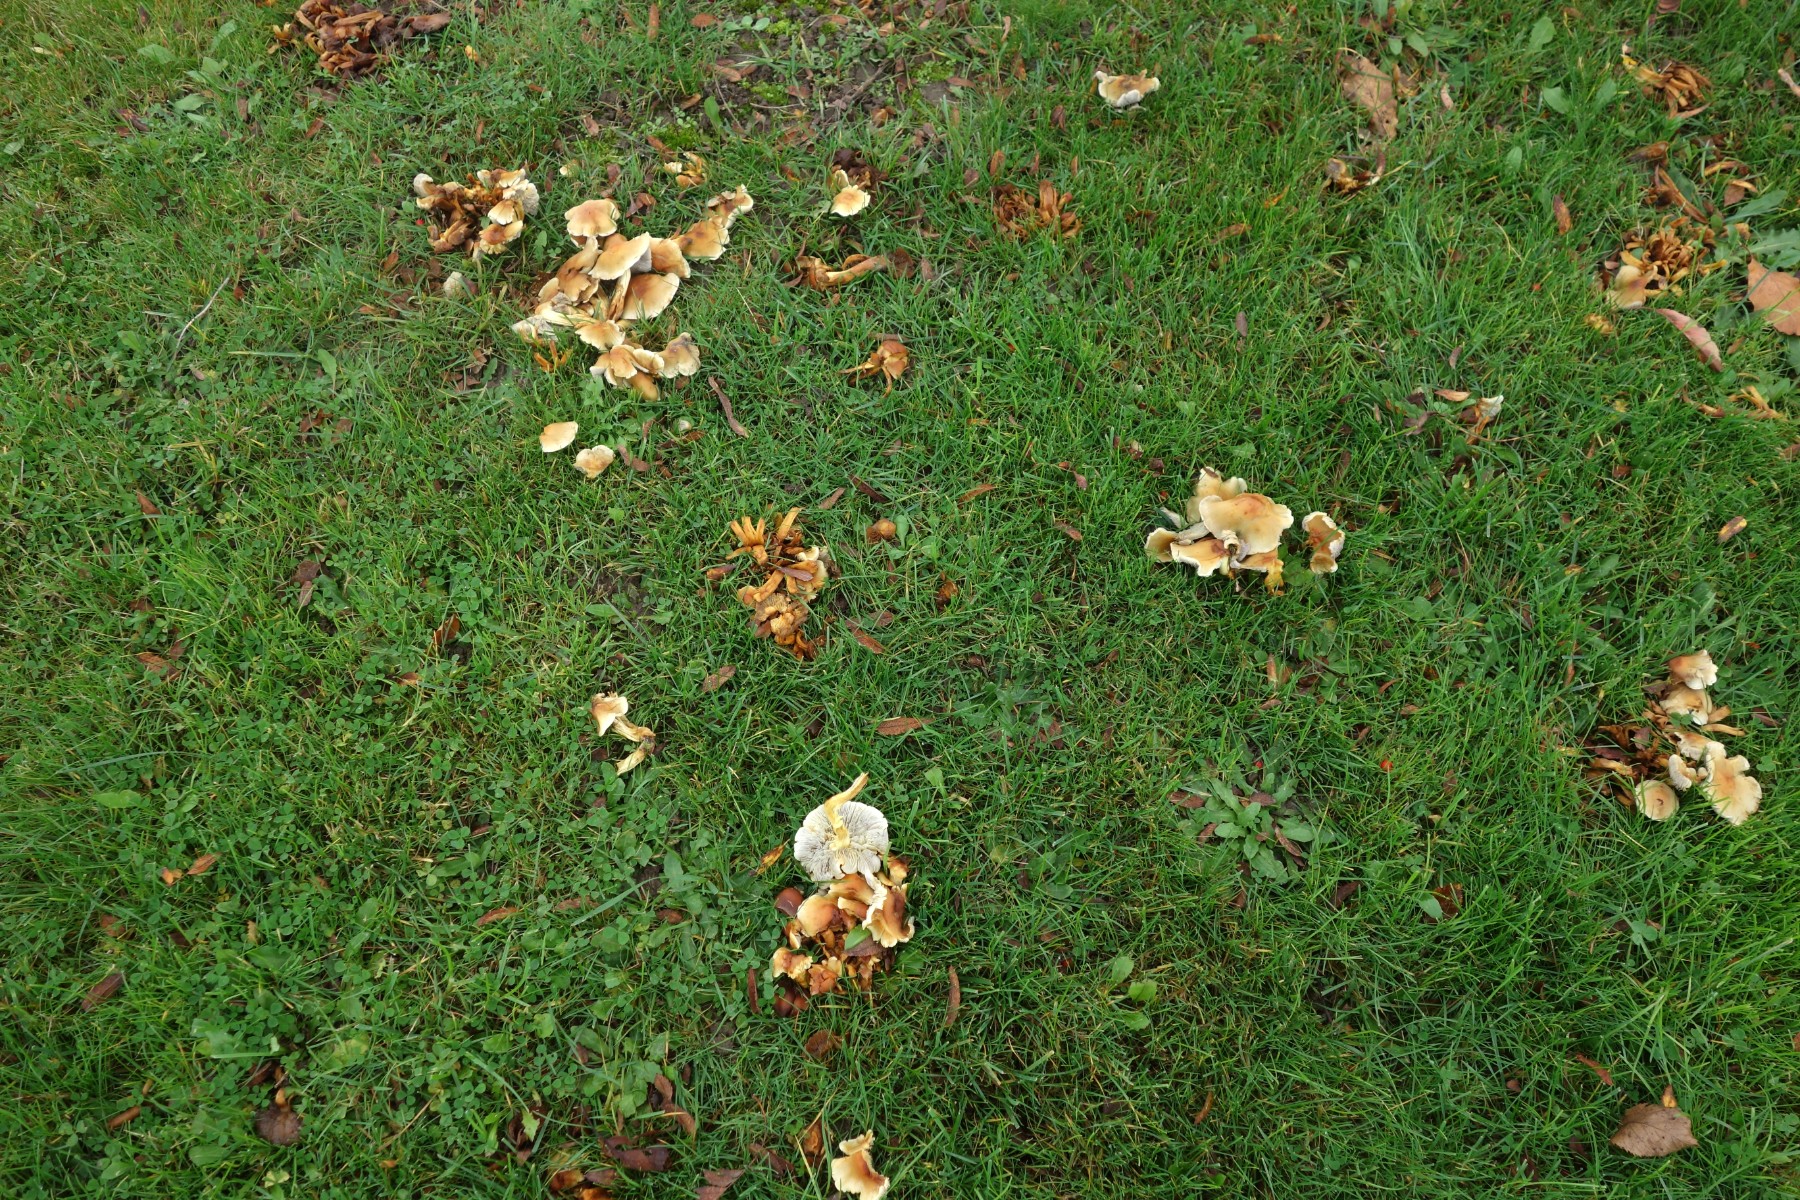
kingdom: Fungi
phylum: Basidiomycota
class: Agaricomycetes
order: Agaricales
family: Strophariaceae
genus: Hypholoma
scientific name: Hypholoma fasciculare
